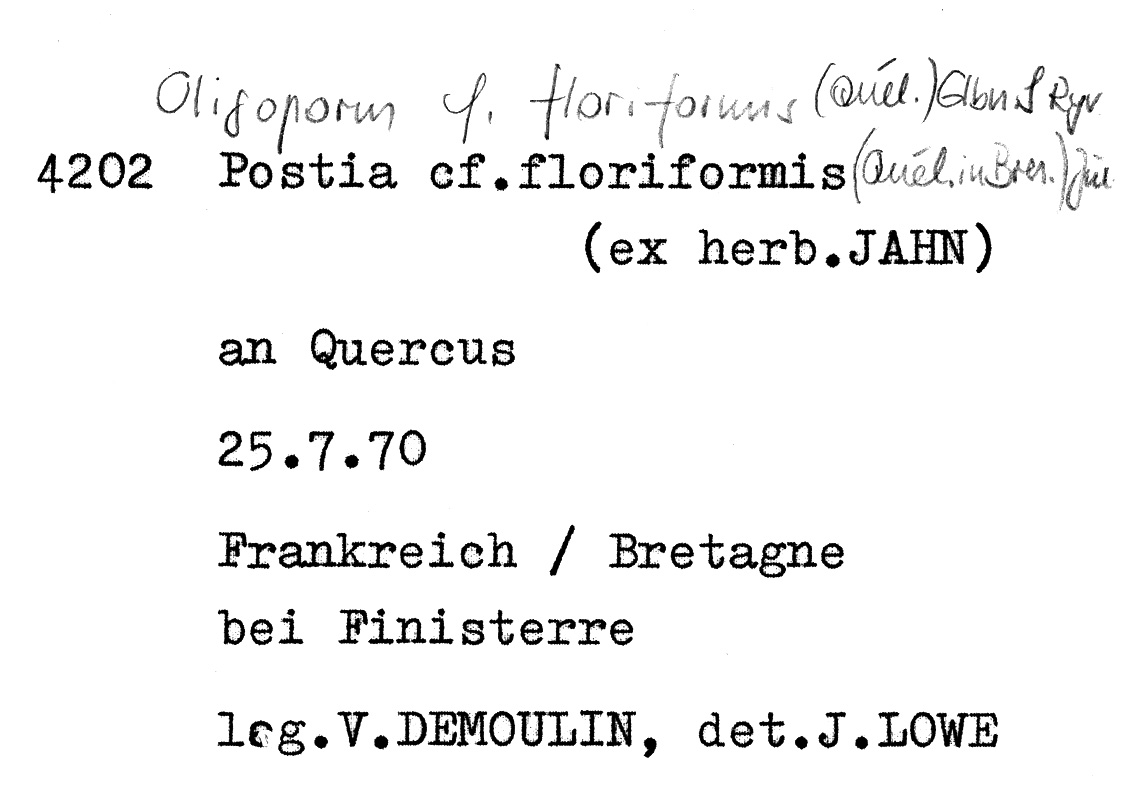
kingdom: Fungi
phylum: Basidiomycota
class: Agaricomycetes
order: Polyporales
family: Dacryobolaceae
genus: Spongiporus
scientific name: Spongiporus floriformis
